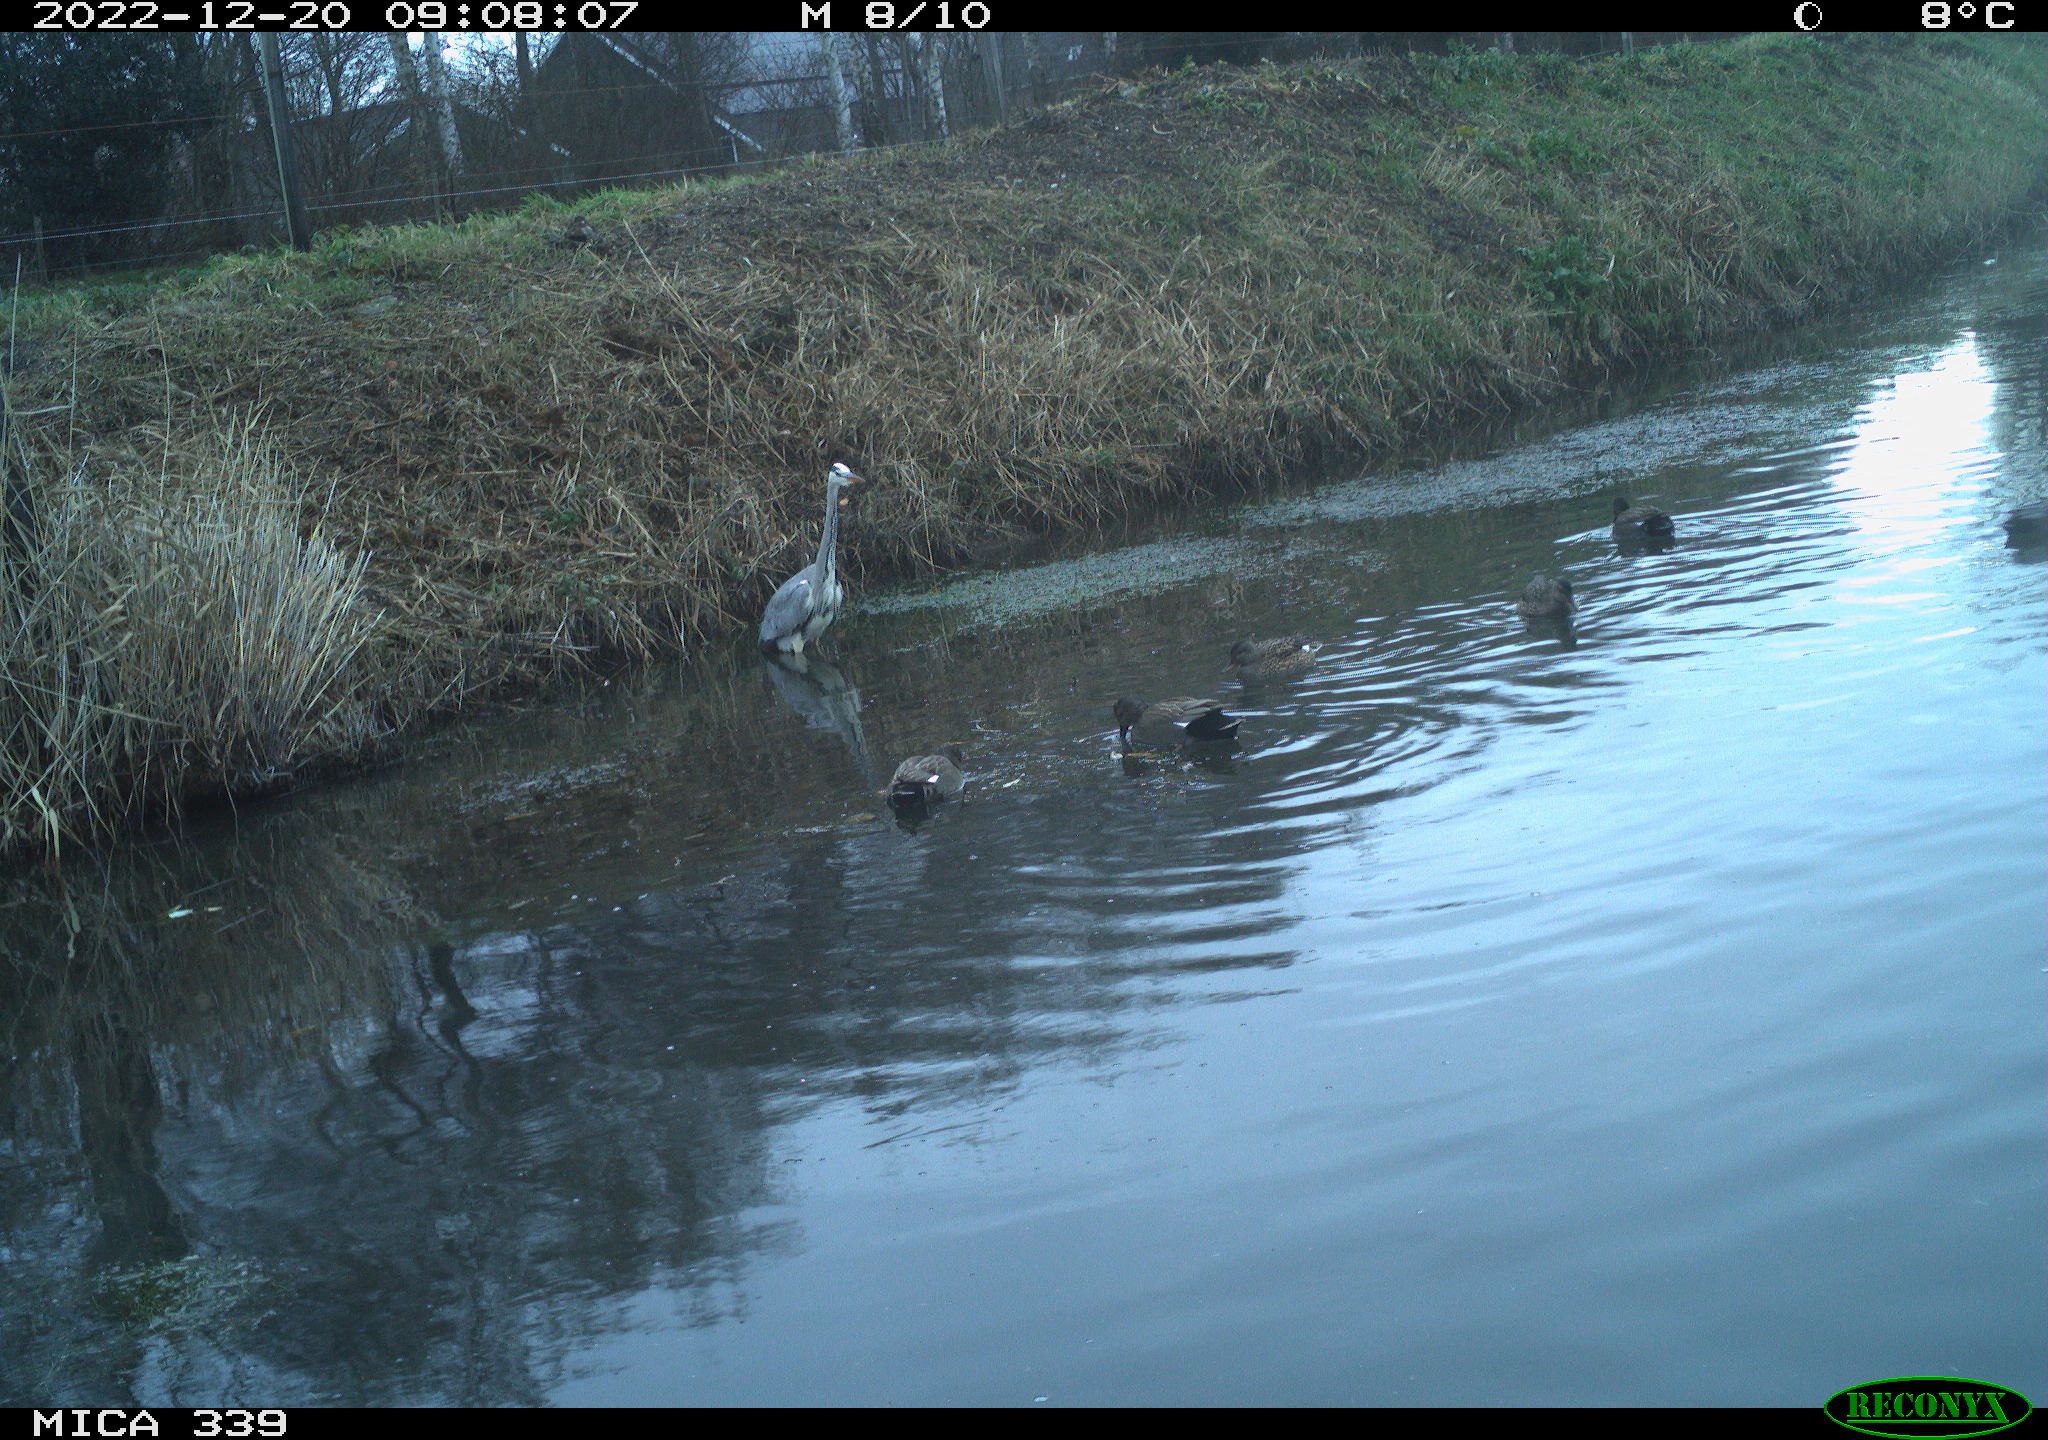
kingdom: Animalia
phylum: Chordata
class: Aves
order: Anseriformes
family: Anatidae
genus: Anas
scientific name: Anas
